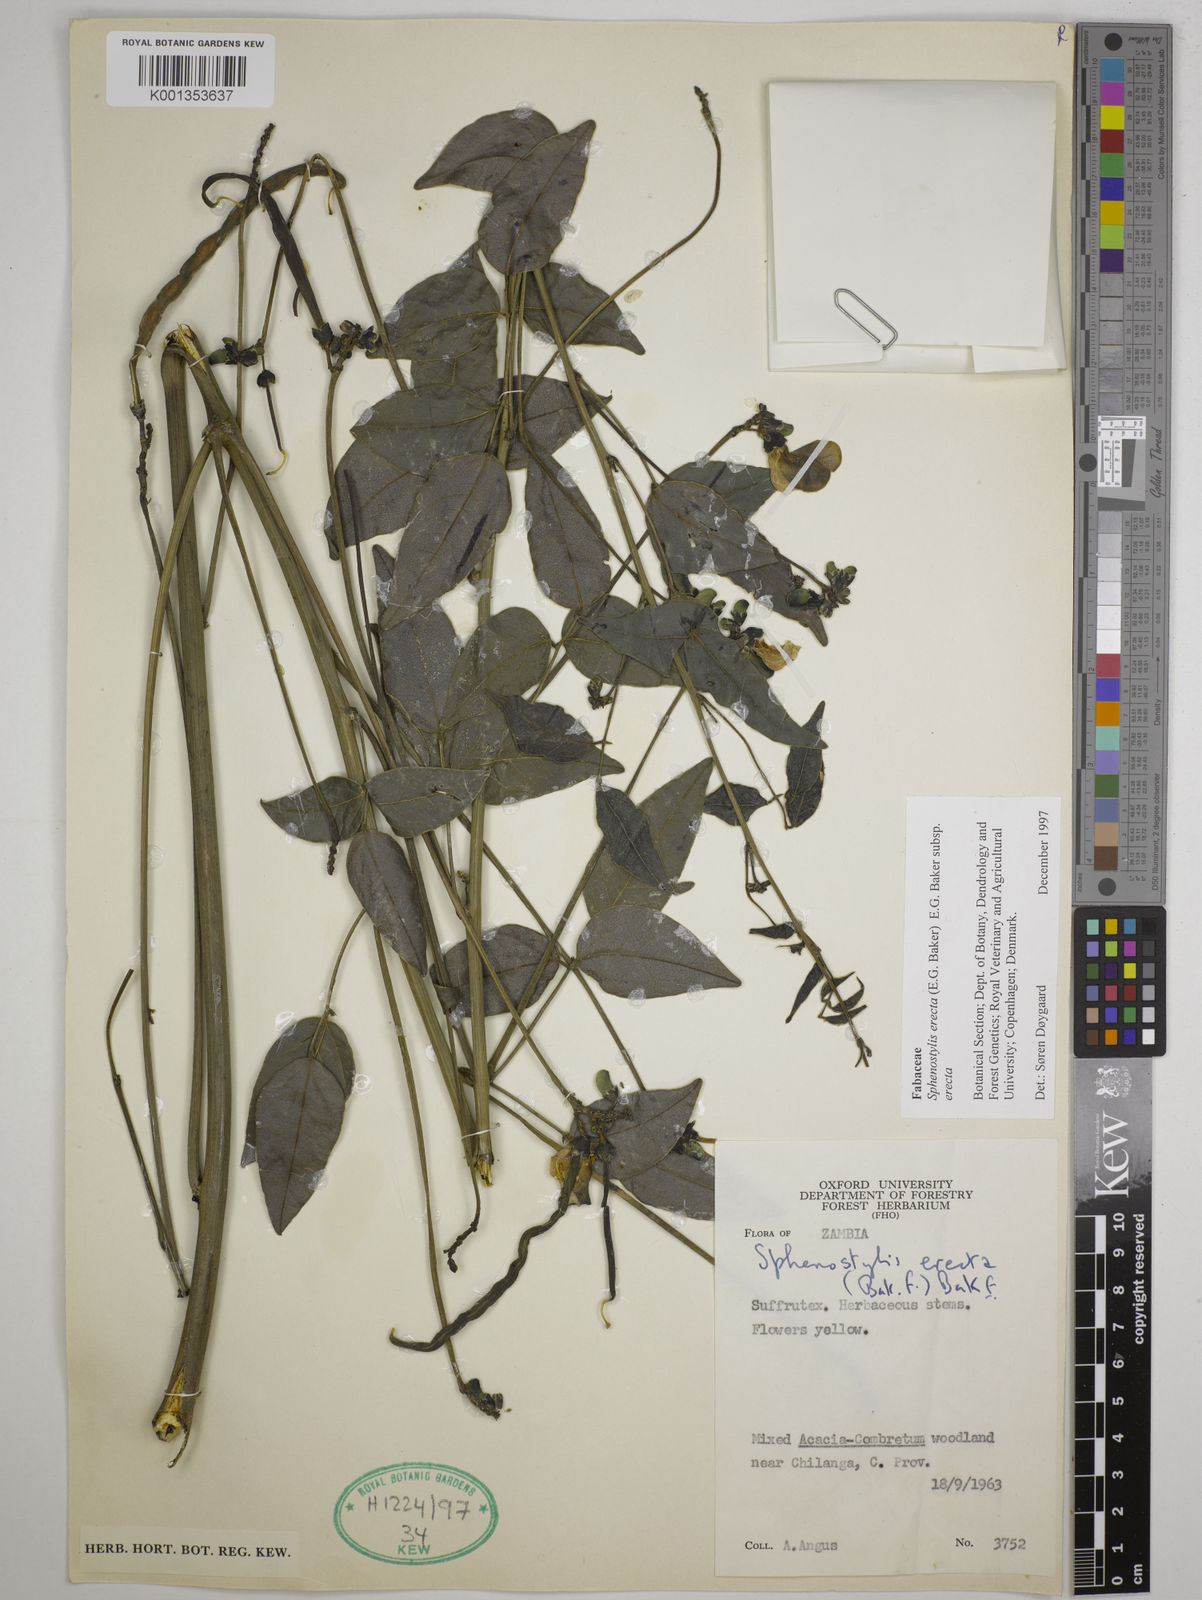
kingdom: Plantae
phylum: Tracheophyta
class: Magnoliopsida
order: Fabales
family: Fabaceae
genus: Sphenostylis
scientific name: Sphenostylis erecta
